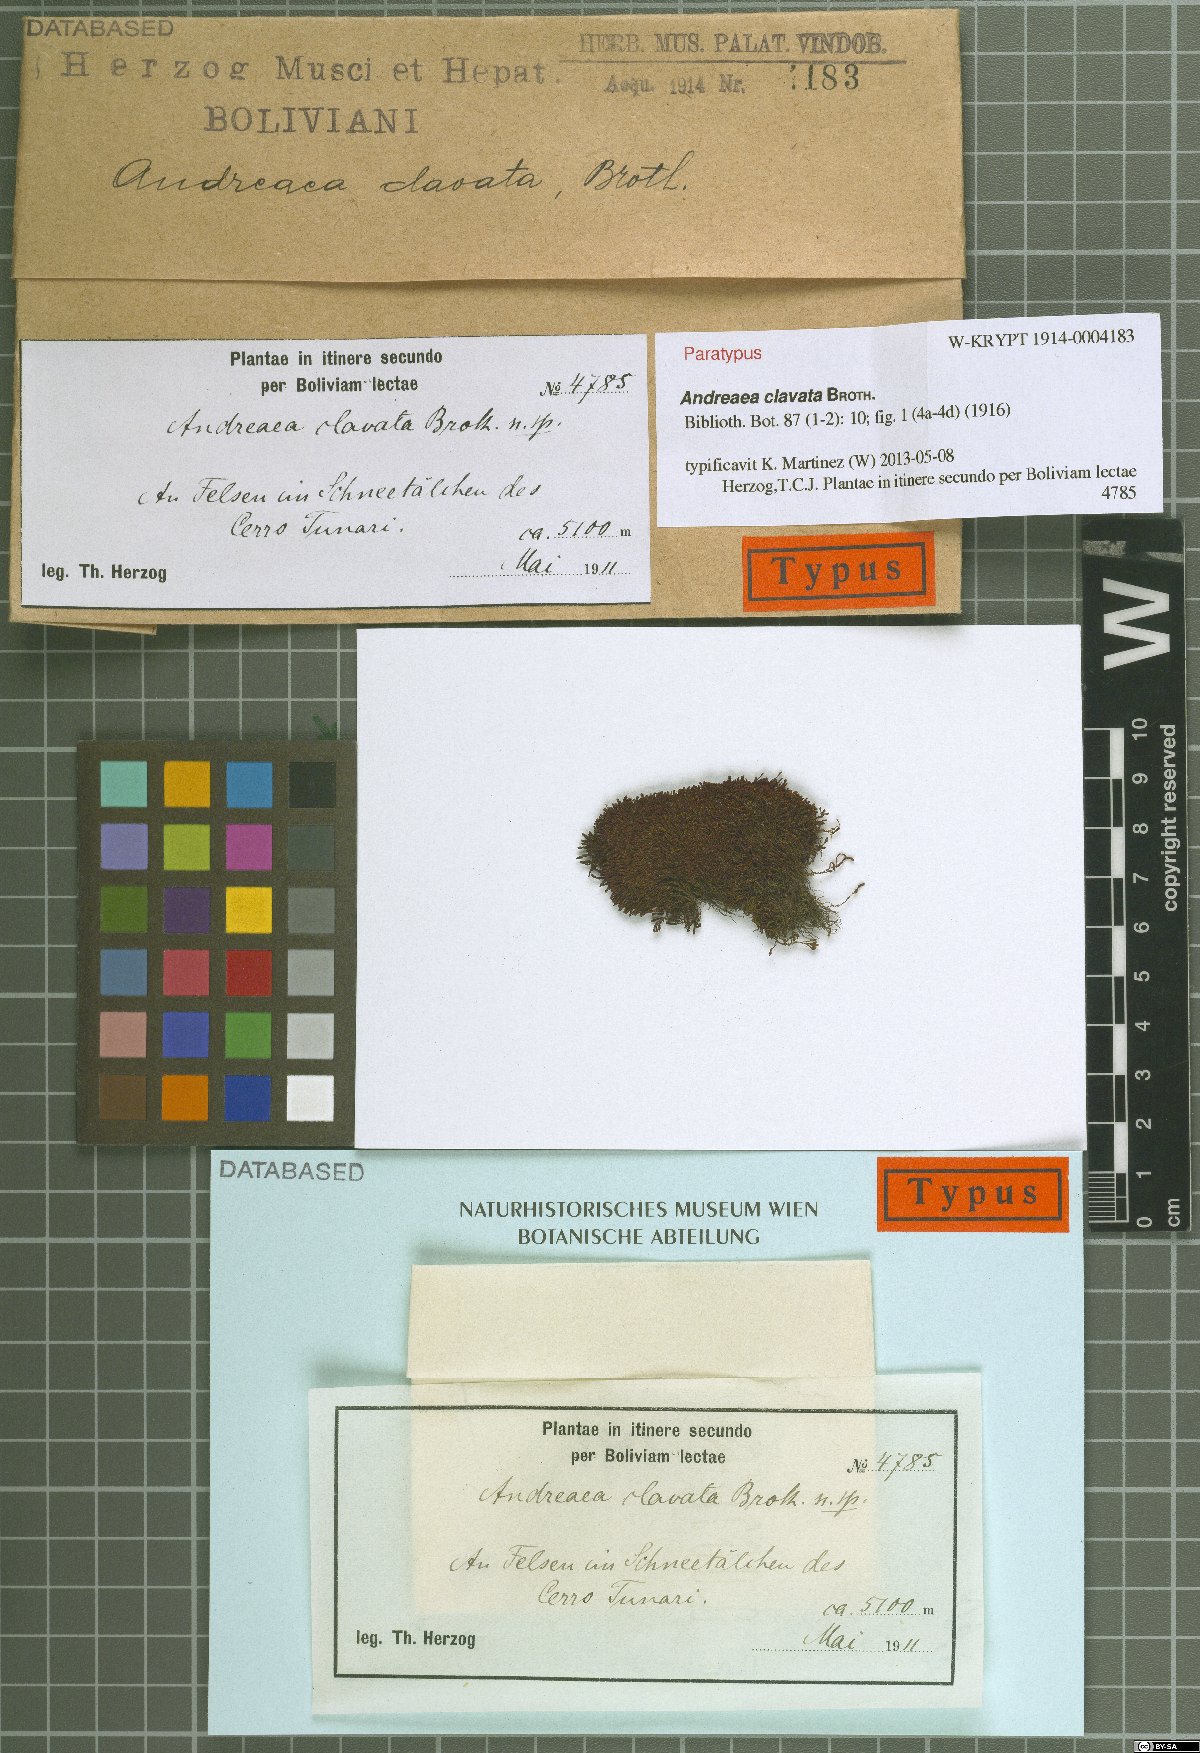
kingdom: Plantae
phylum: Bryophyta
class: Andreaeopsida
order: Andreaeales
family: Andreaeaceae
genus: Andreaea
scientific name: Andreaea clavata
